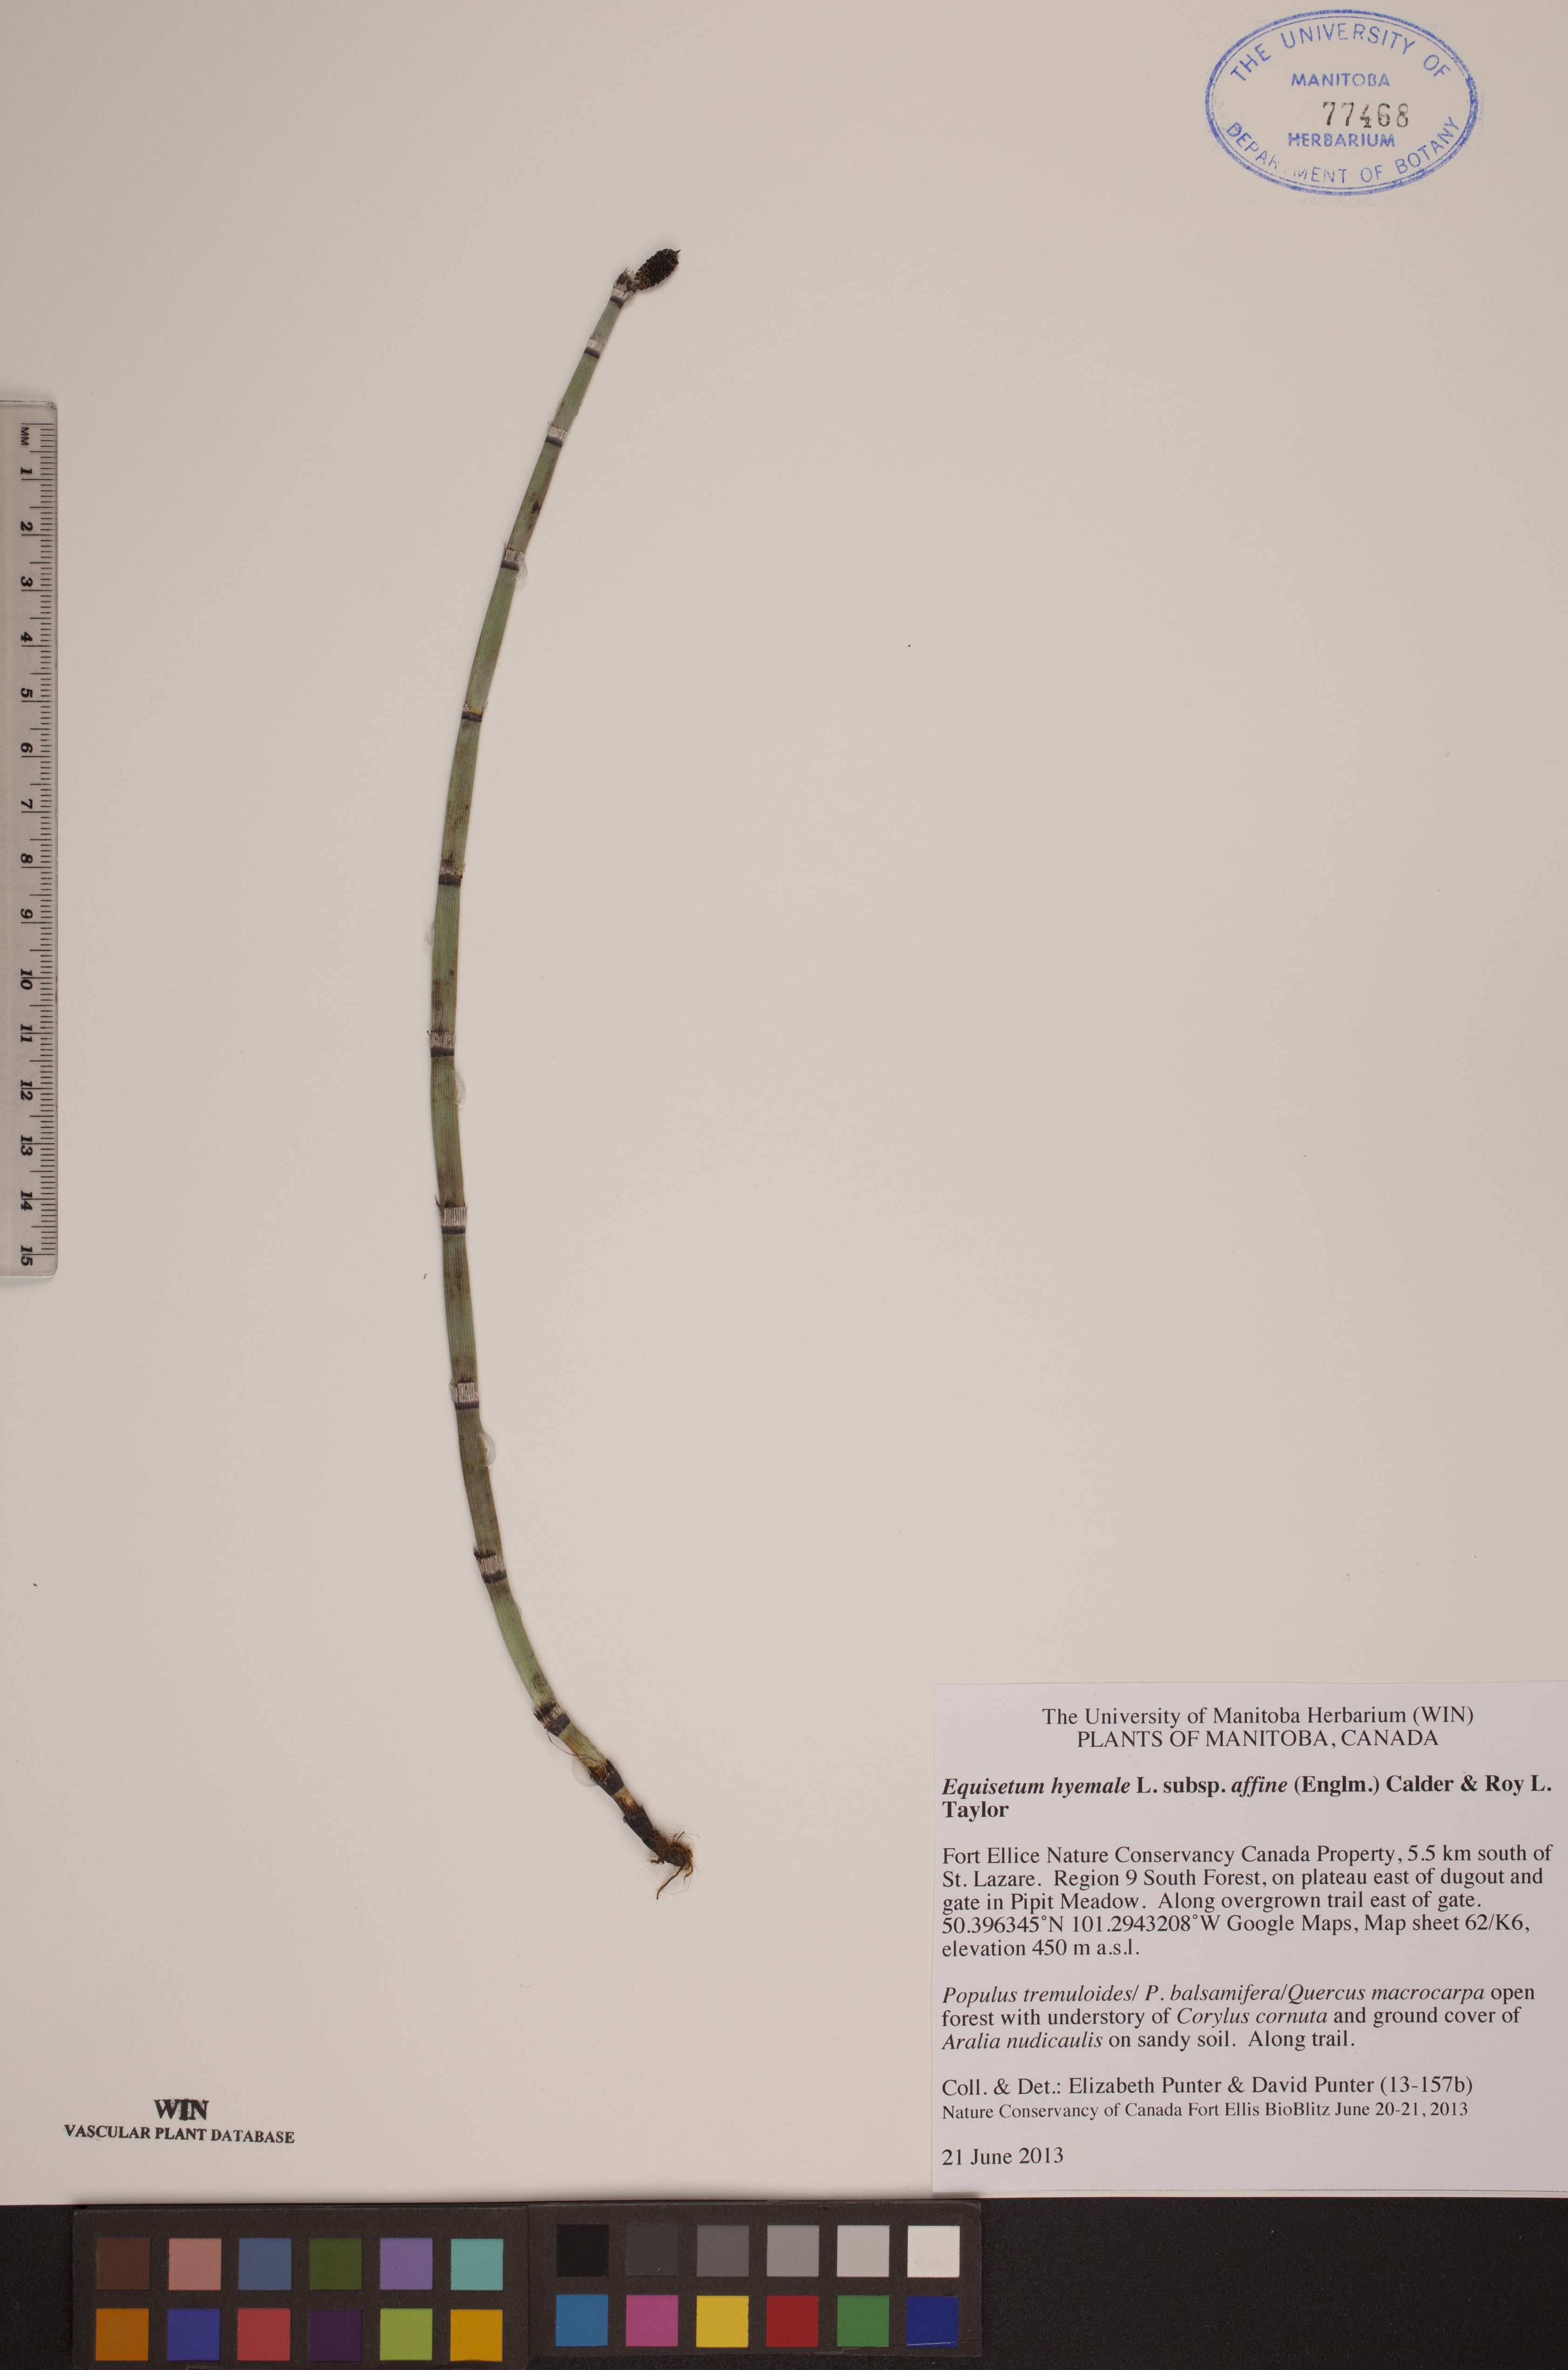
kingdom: Plantae
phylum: Tracheophyta
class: Polypodiopsida
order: Equisetales
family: Equisetaceae
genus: Equisetum
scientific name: Equisetum praealtum
